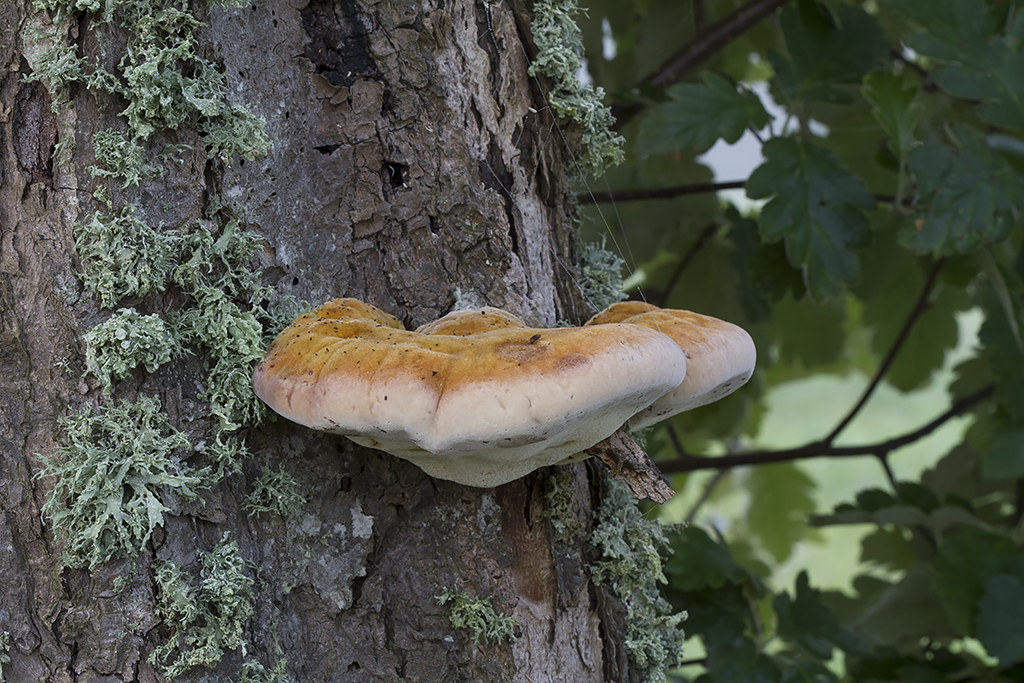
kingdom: Fungi
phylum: Basidiomycota
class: Agaricomycetes
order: Hymenochaetales
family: Hymenochaetaceae
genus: Inonotus
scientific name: Inonotus hispidus
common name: børstehåret spejlporesvamp
